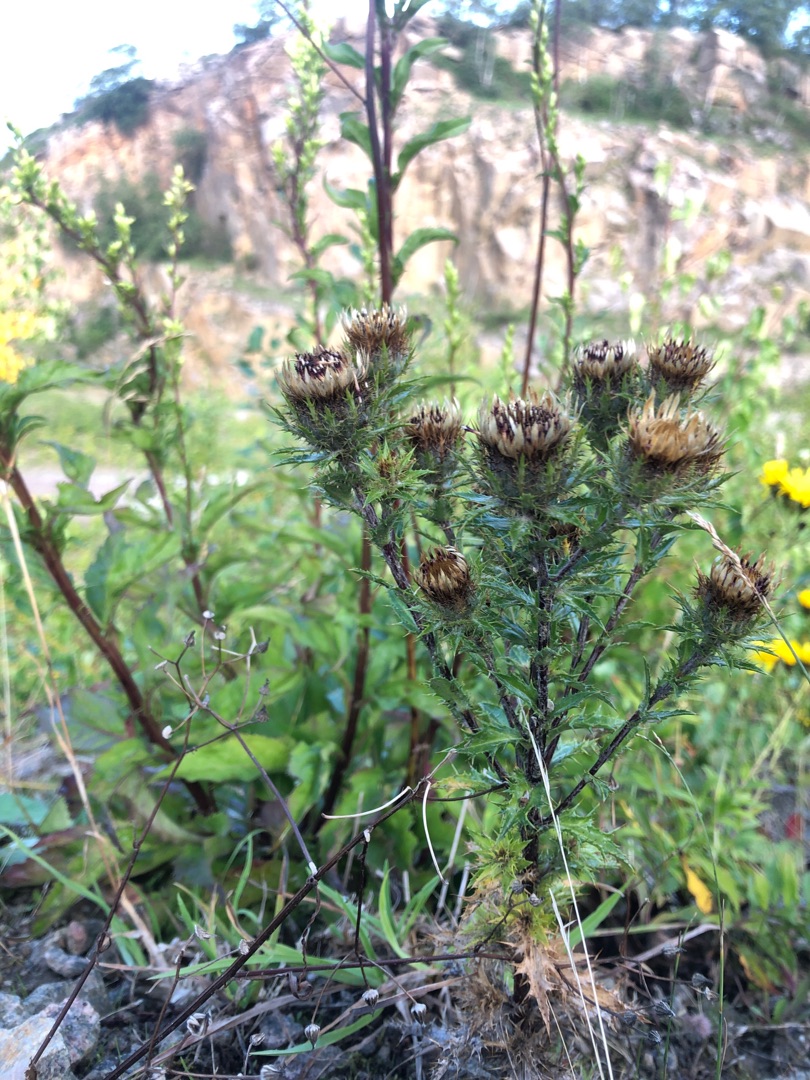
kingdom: Plantae
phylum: Tracheophyta
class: Magnoliopsida
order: Asterales
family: Asteraceae
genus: Carlina
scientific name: Carlina vulgaris
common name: Bakketidsel
